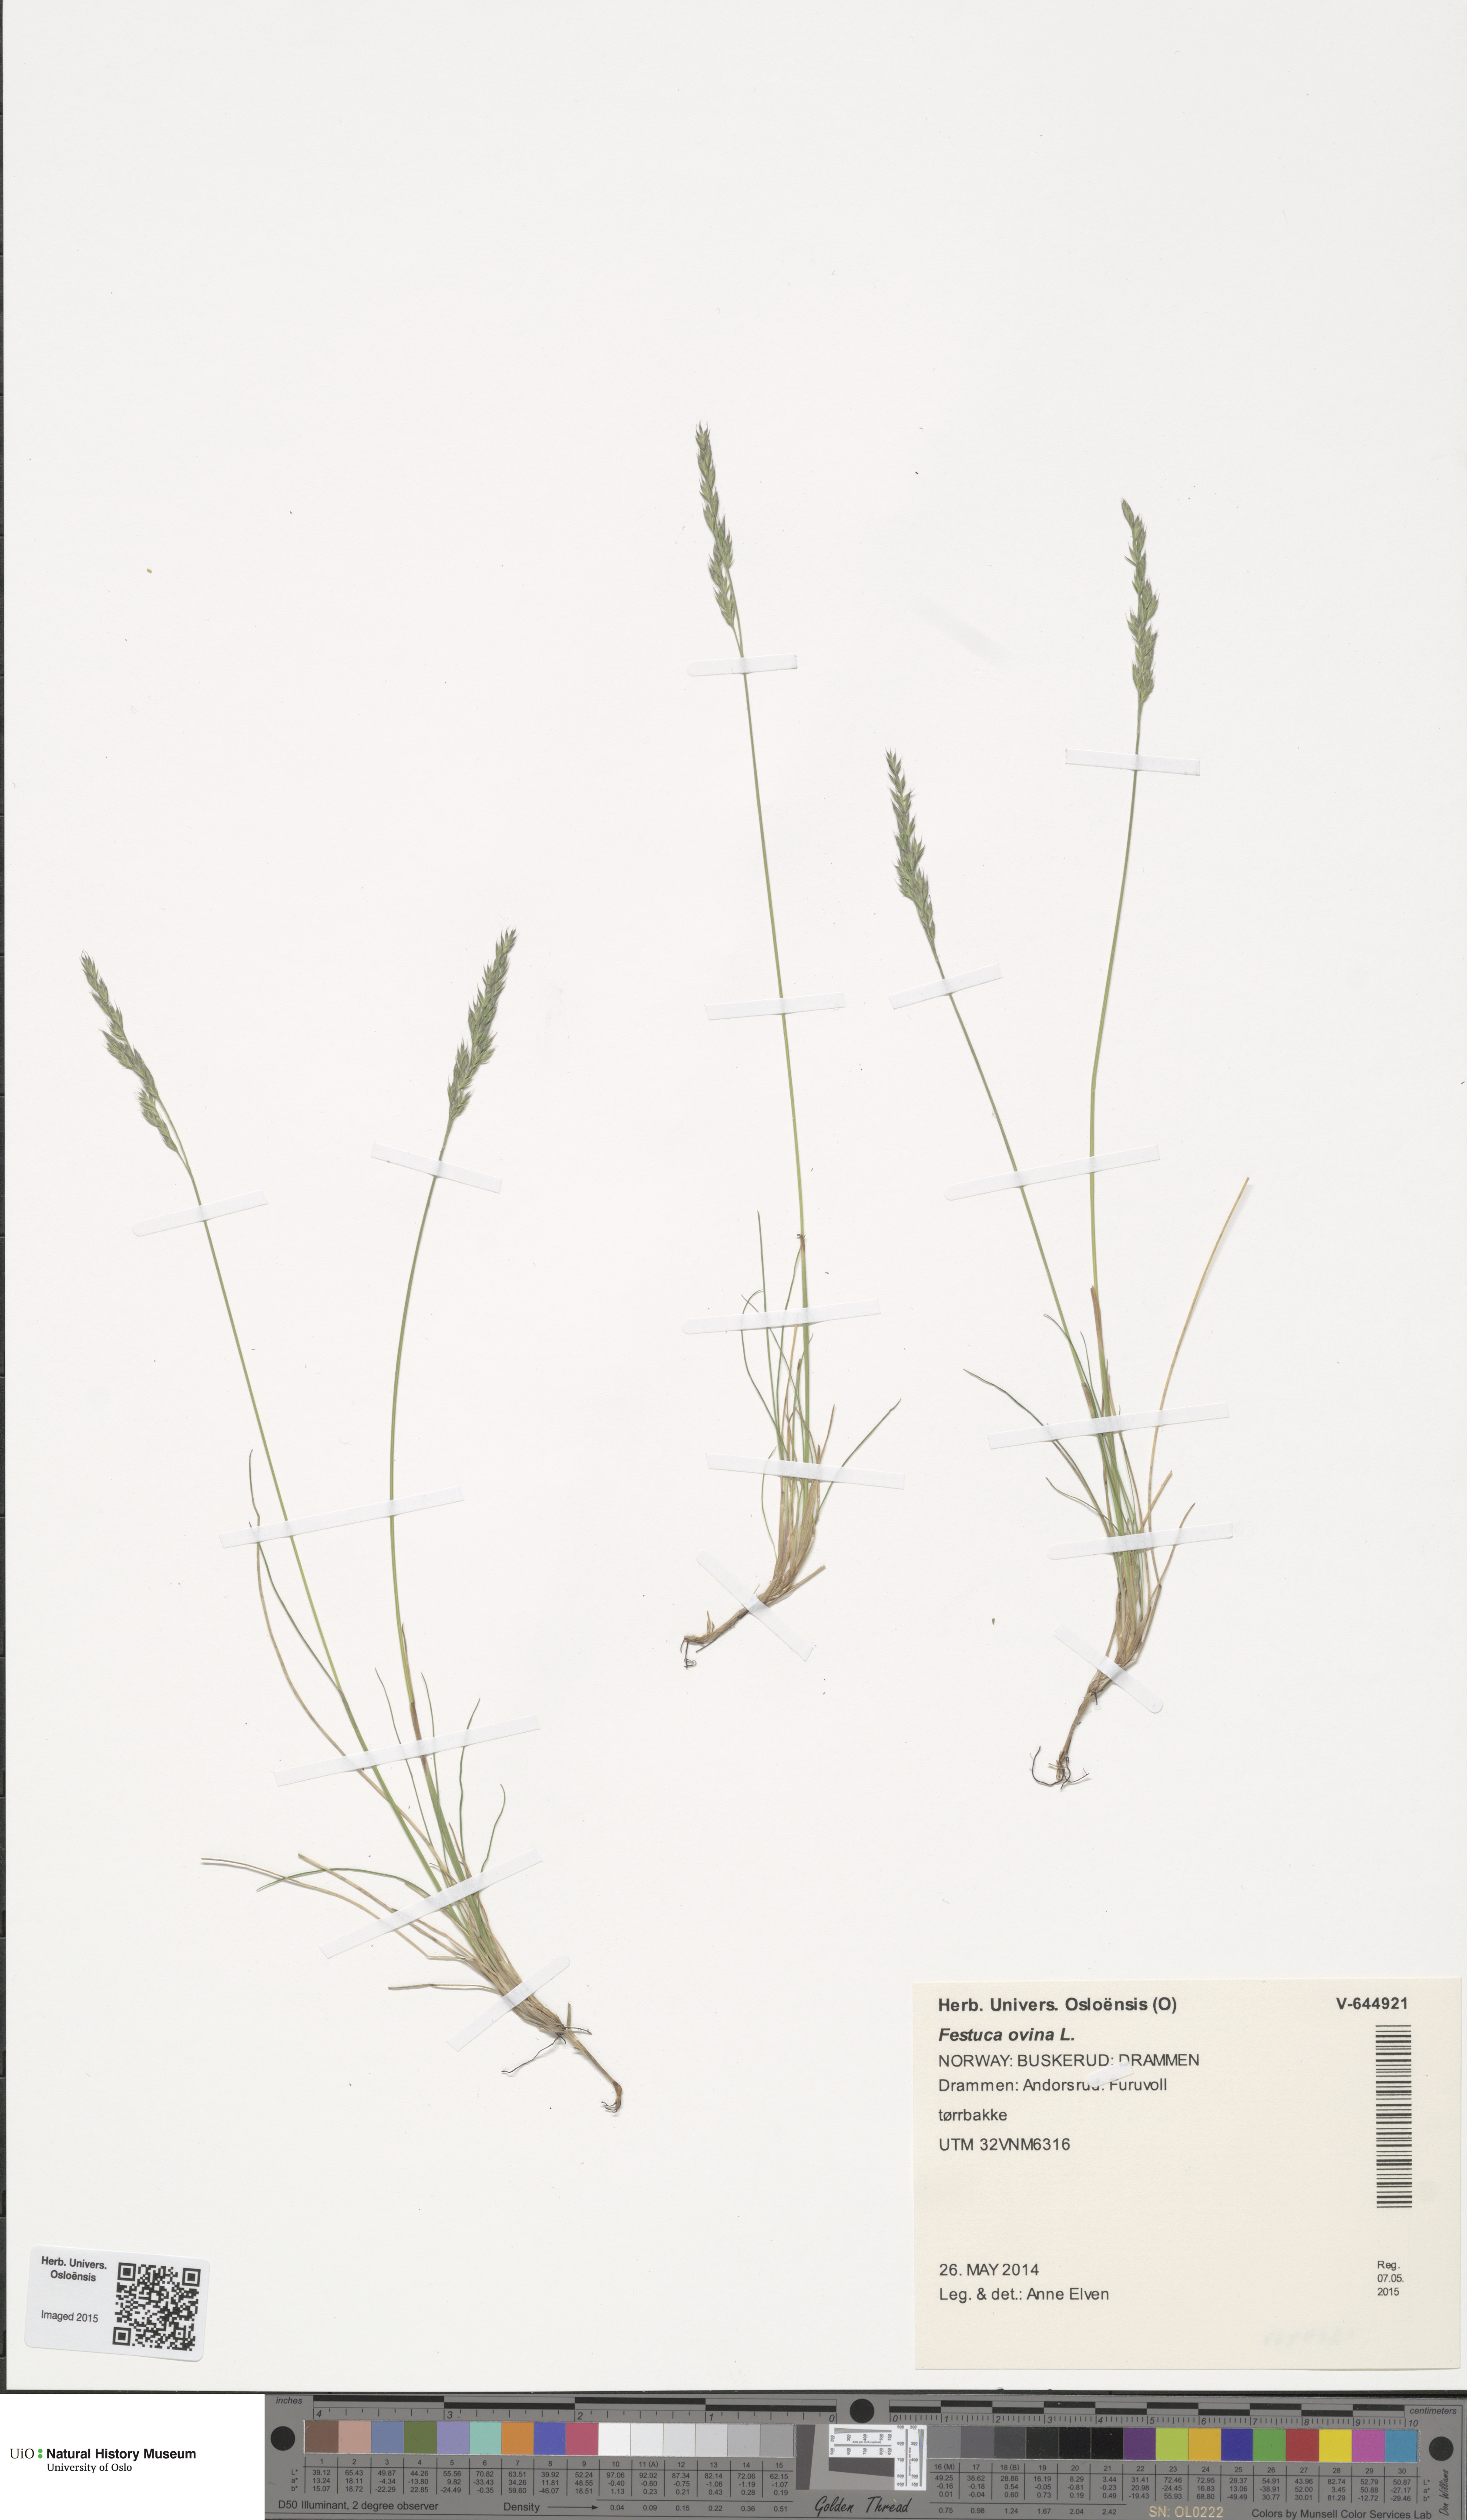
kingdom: Plantae
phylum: Tracheophyta
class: Liliopsida
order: Poales
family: Poaceae
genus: Festuca
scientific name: Festuca ovina
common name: Sheep fescue
